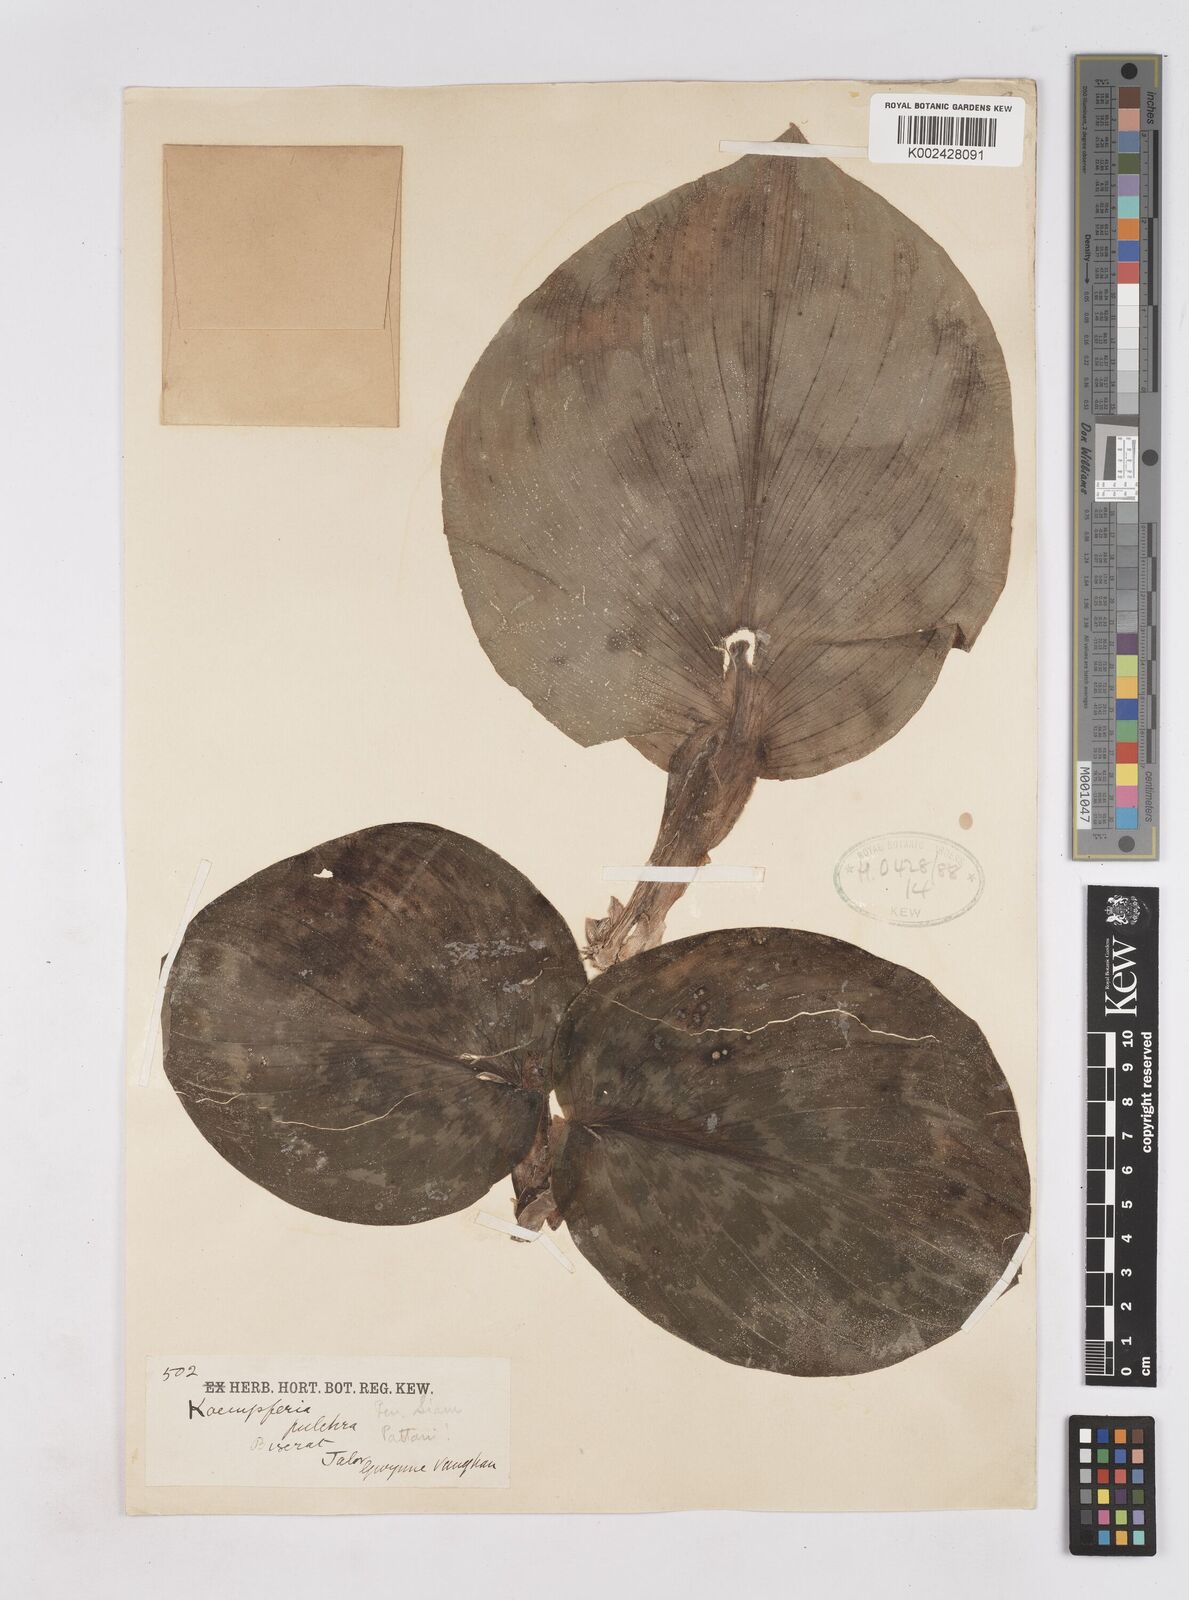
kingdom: Plantae
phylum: Tracheophyta
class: Liliopsida
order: Zingiberales
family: Zingiberaceae
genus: Kaempferia
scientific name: Kaempferia elegans
